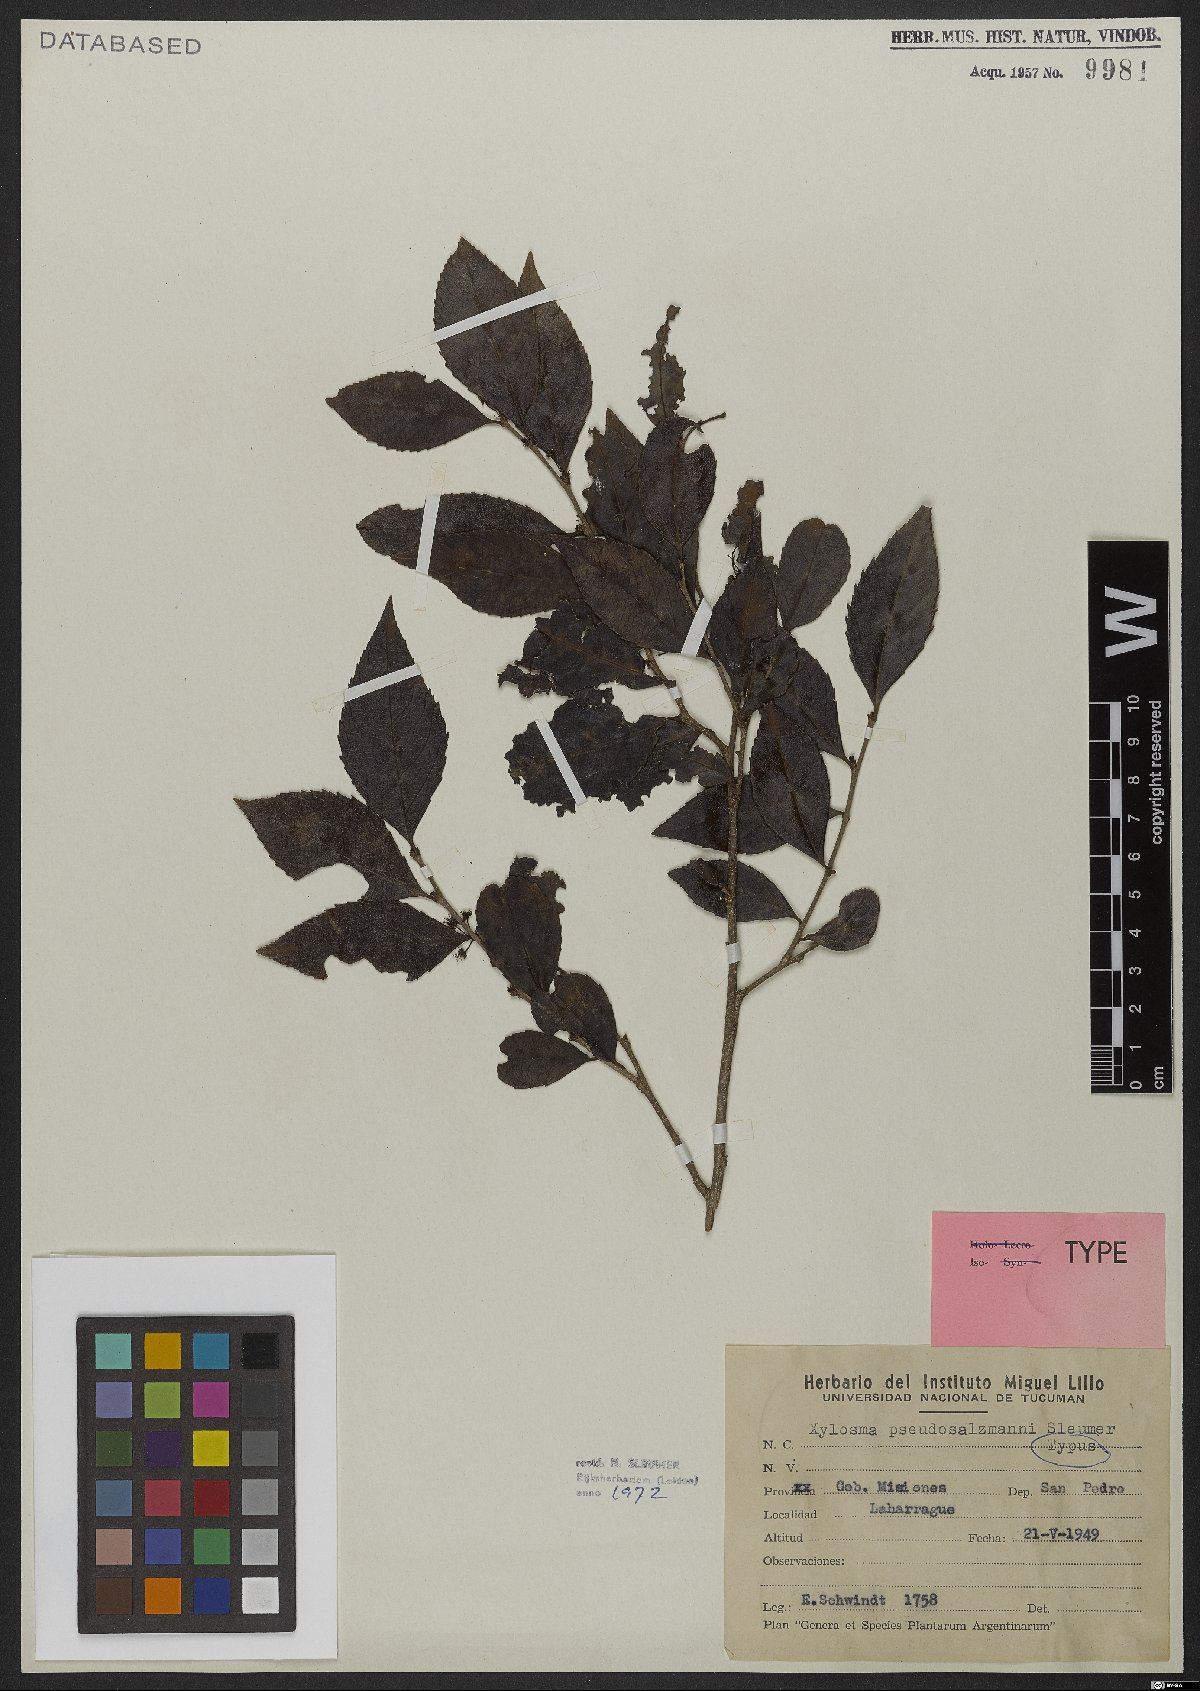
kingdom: Plantae
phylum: Tracheophyta
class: Magnoliopsida
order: Malpighiales
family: Salicaceae
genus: Xylosma
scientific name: Xylosma pseudosalzmannii
